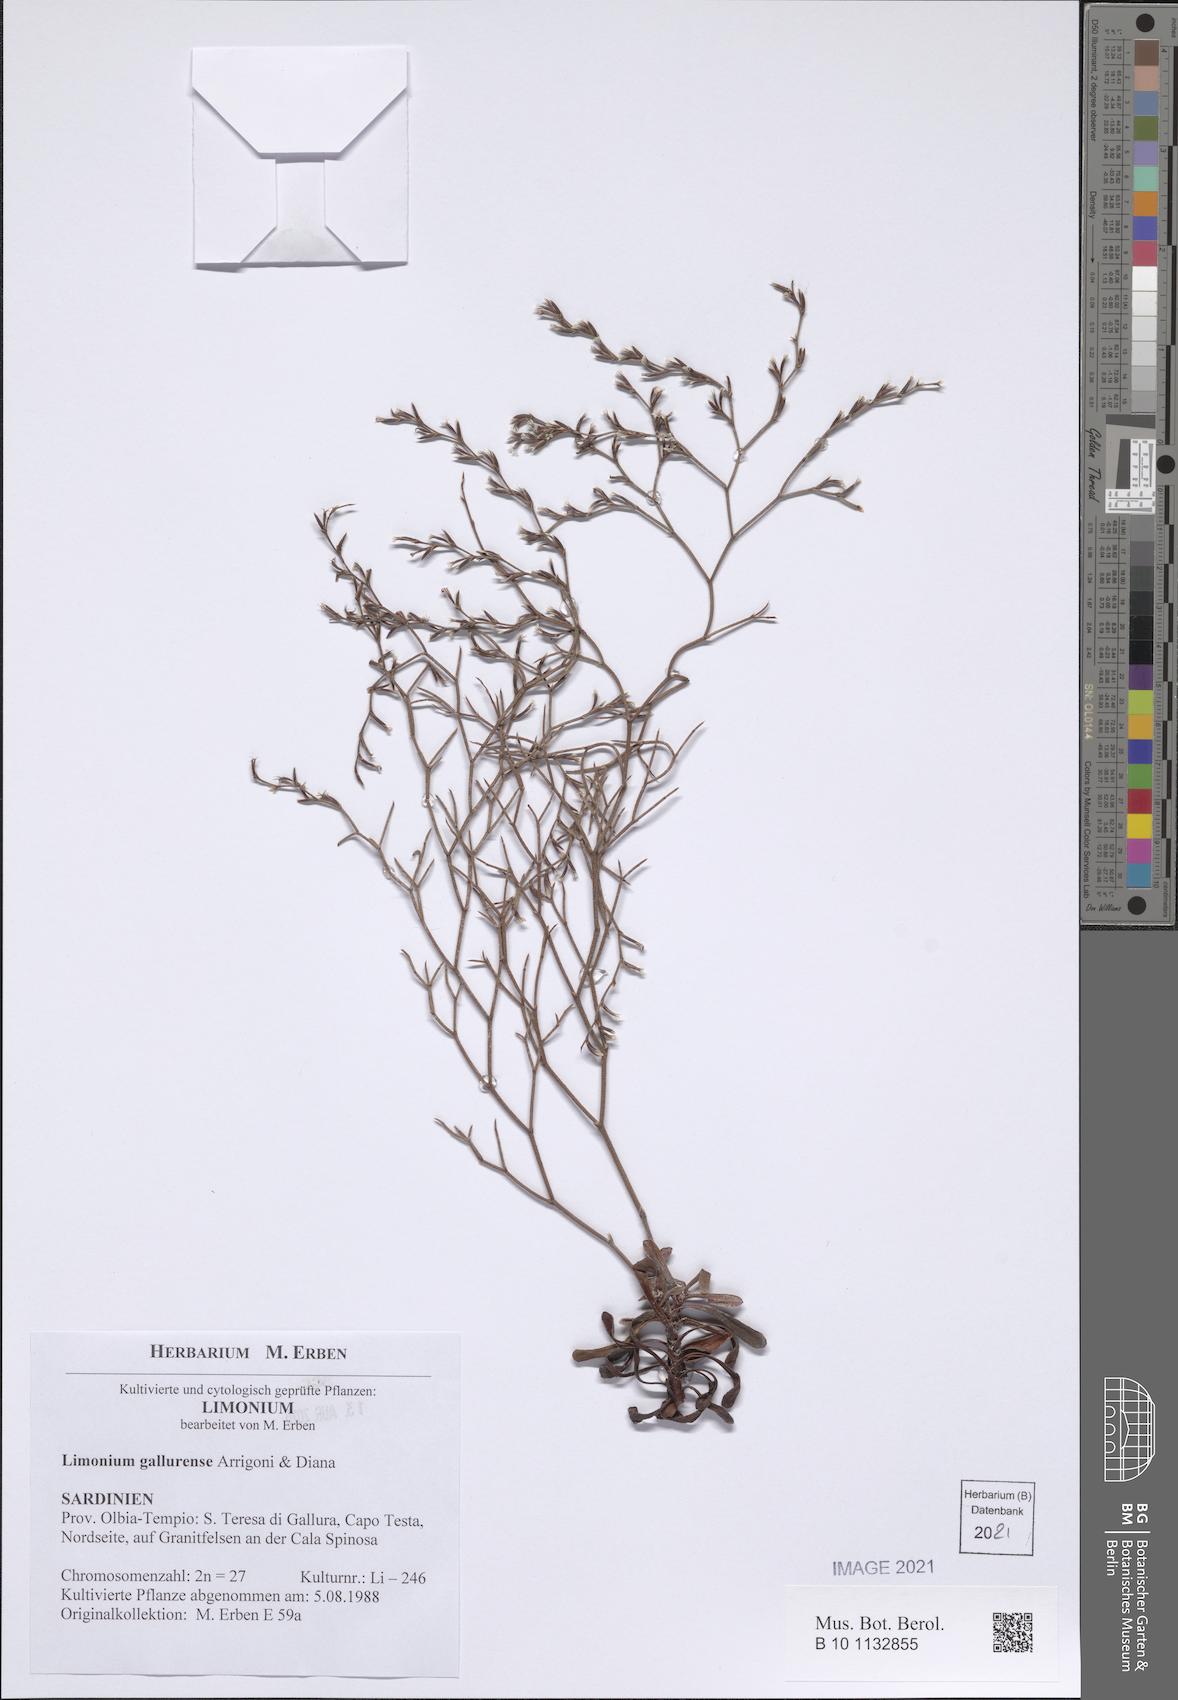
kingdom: Plantae
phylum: Tracheophyta
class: Magnoliopsida
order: Caryophyllales
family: Plumbaginaceae
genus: Limonium
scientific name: Limonium gallurense
